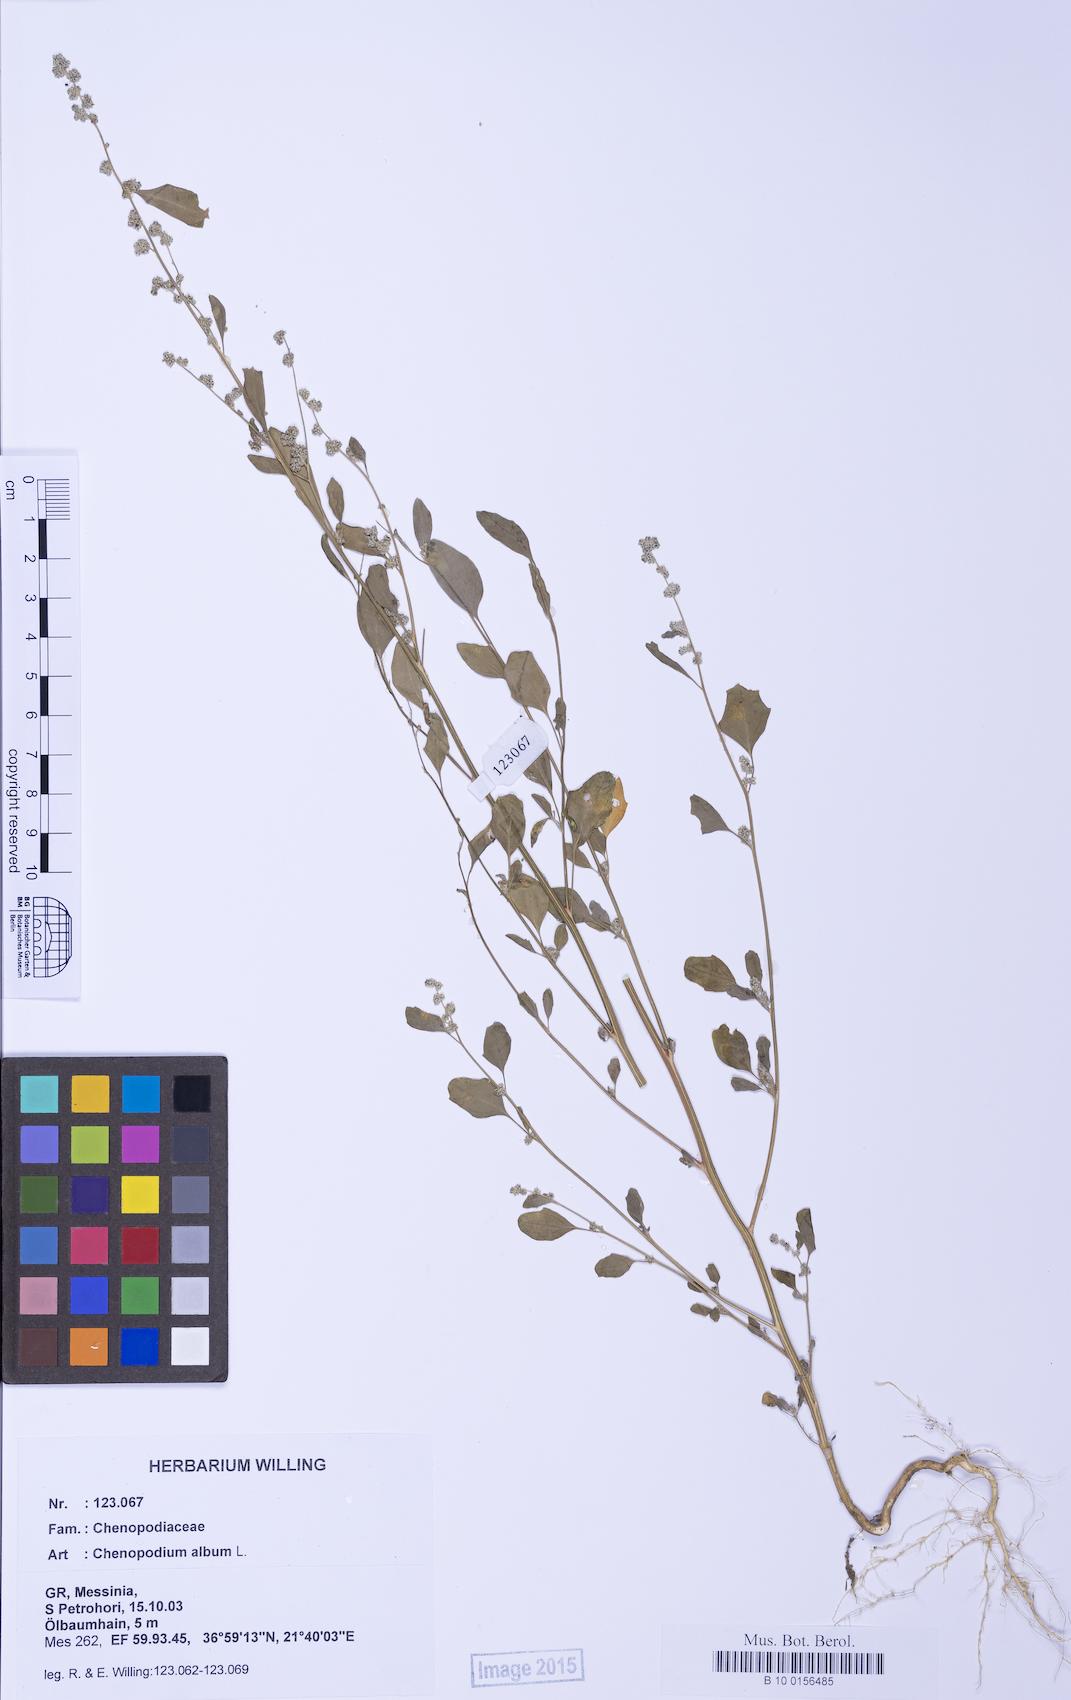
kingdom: Plantae
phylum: Tracheophyta
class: Magnoliopsida
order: Caryophyllales
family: Amaranthaceae
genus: Chenopodium
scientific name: Chenopodium album
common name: Fat-hen
